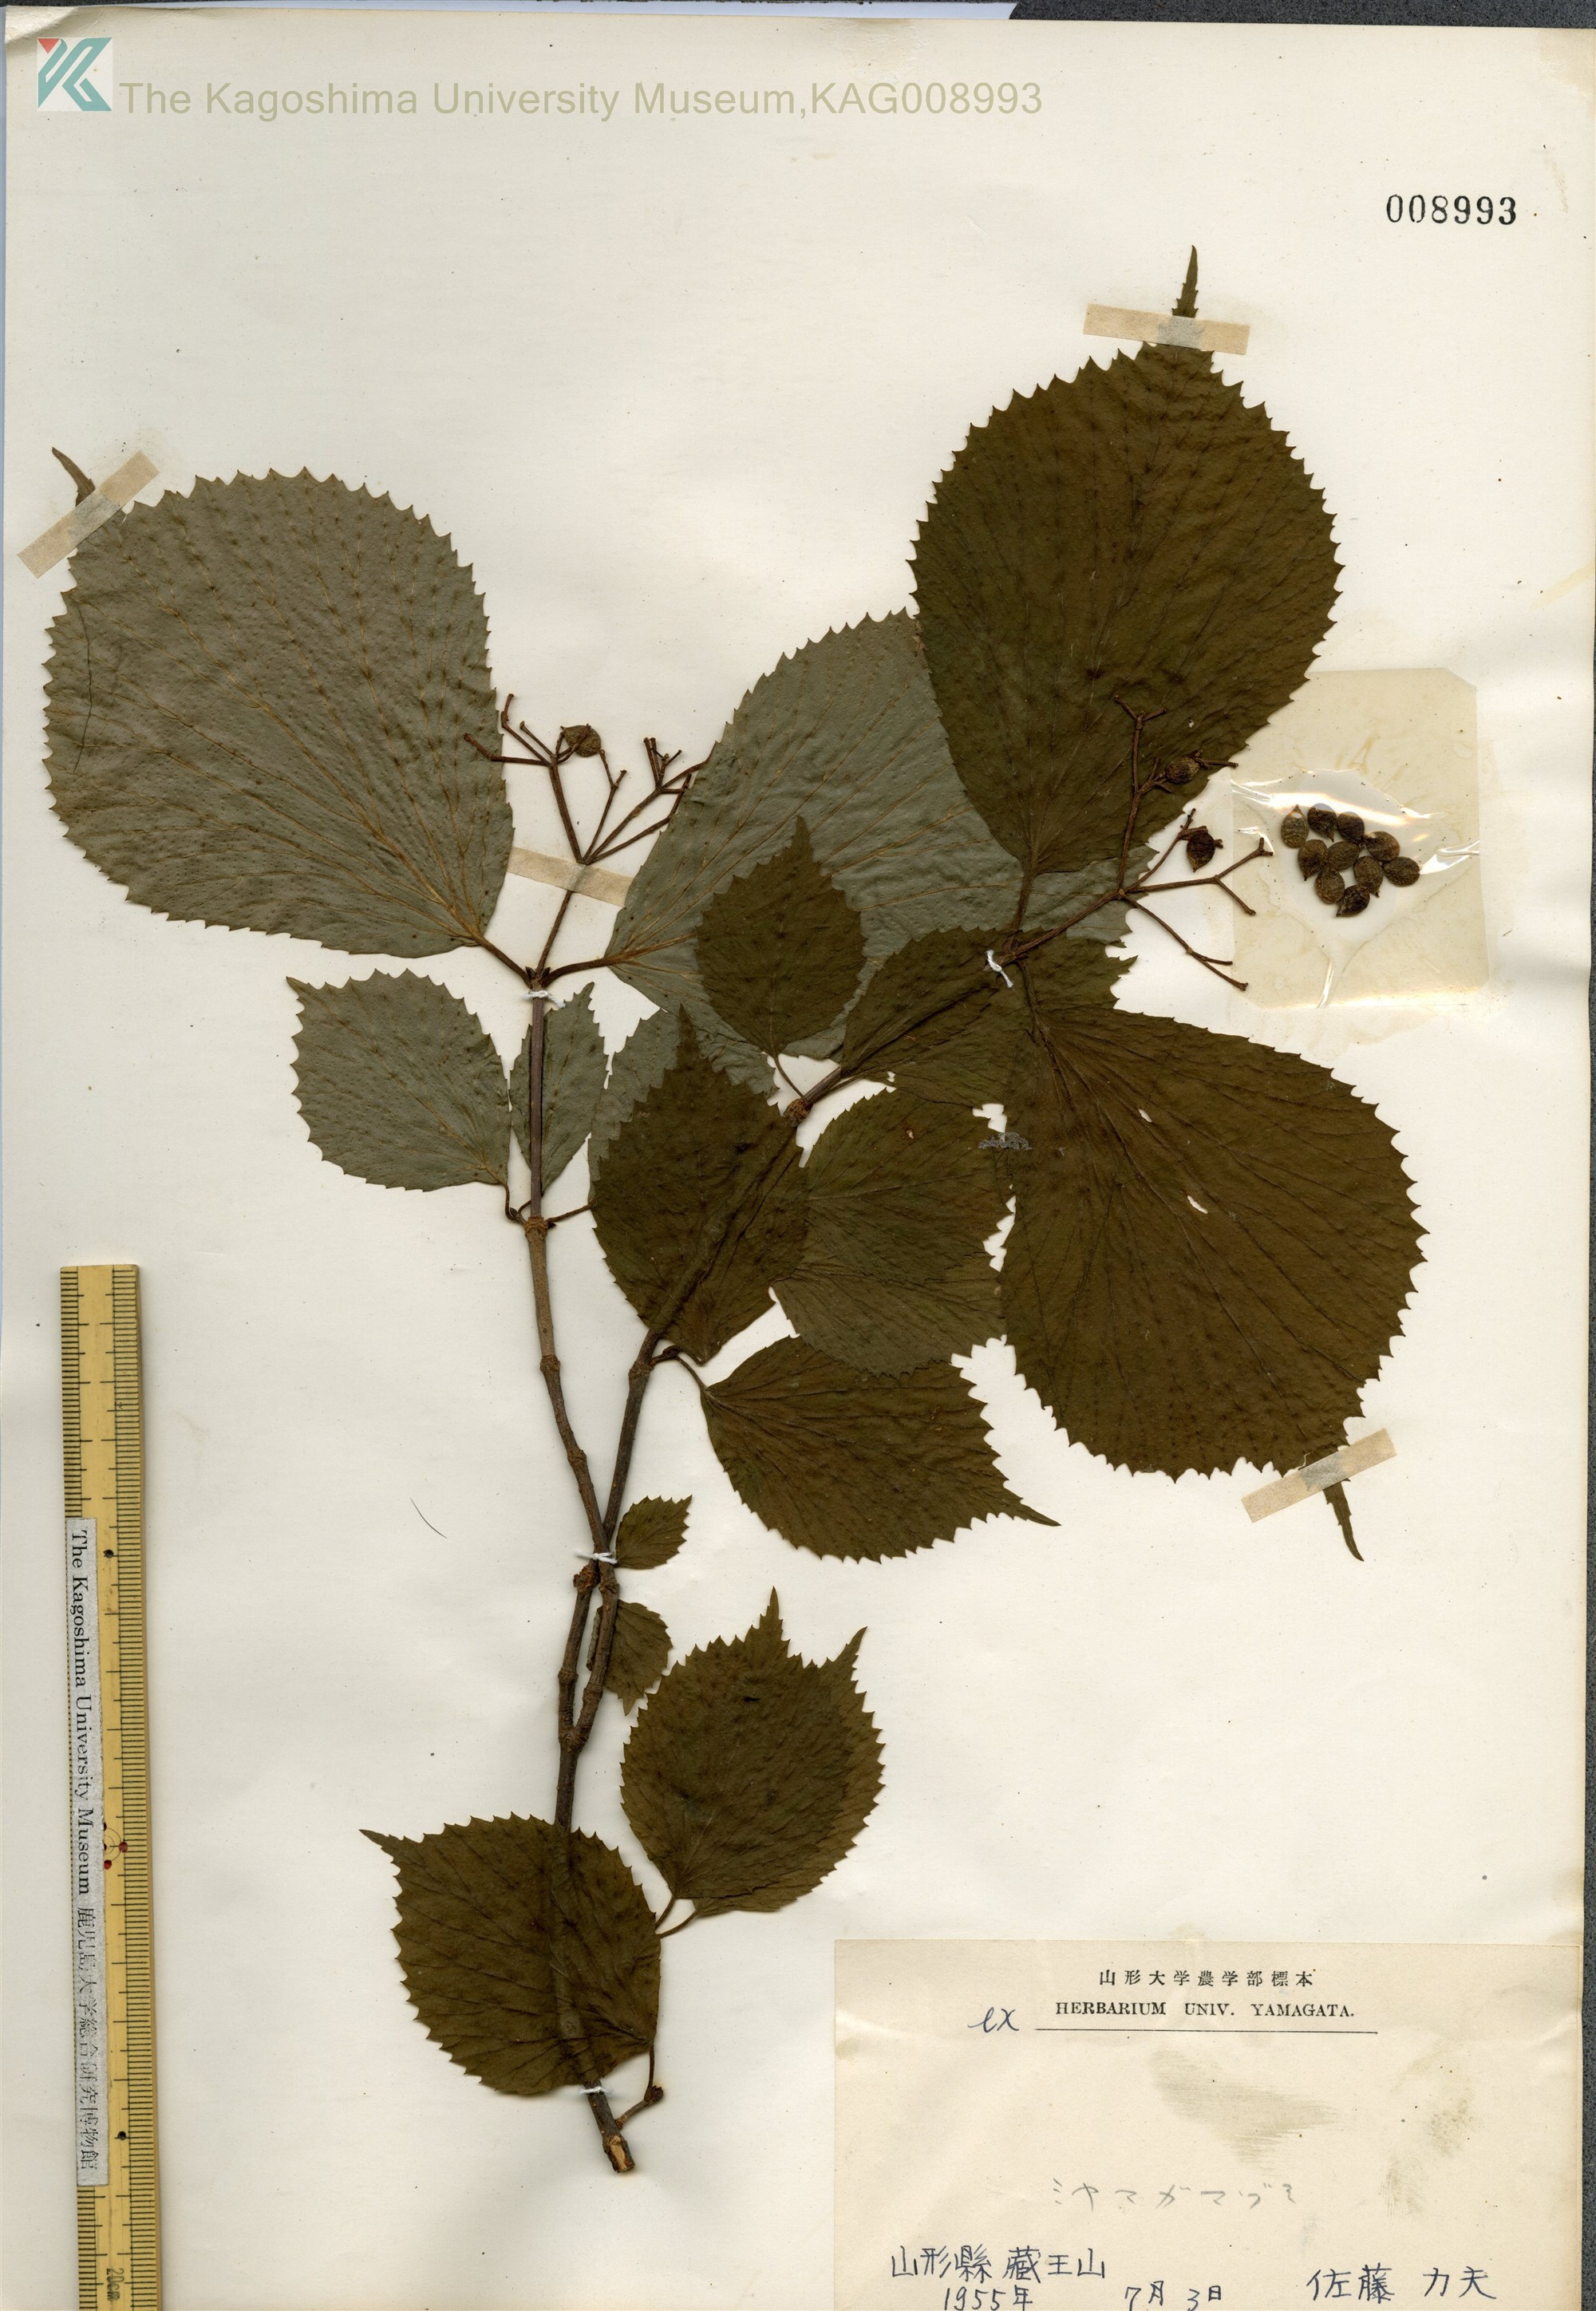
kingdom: Plantae
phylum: Tracheophyta
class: Magnoliopsida
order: Dipsacales
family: Viburnaceae
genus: Viburnum
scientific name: Viburnum wrightii
